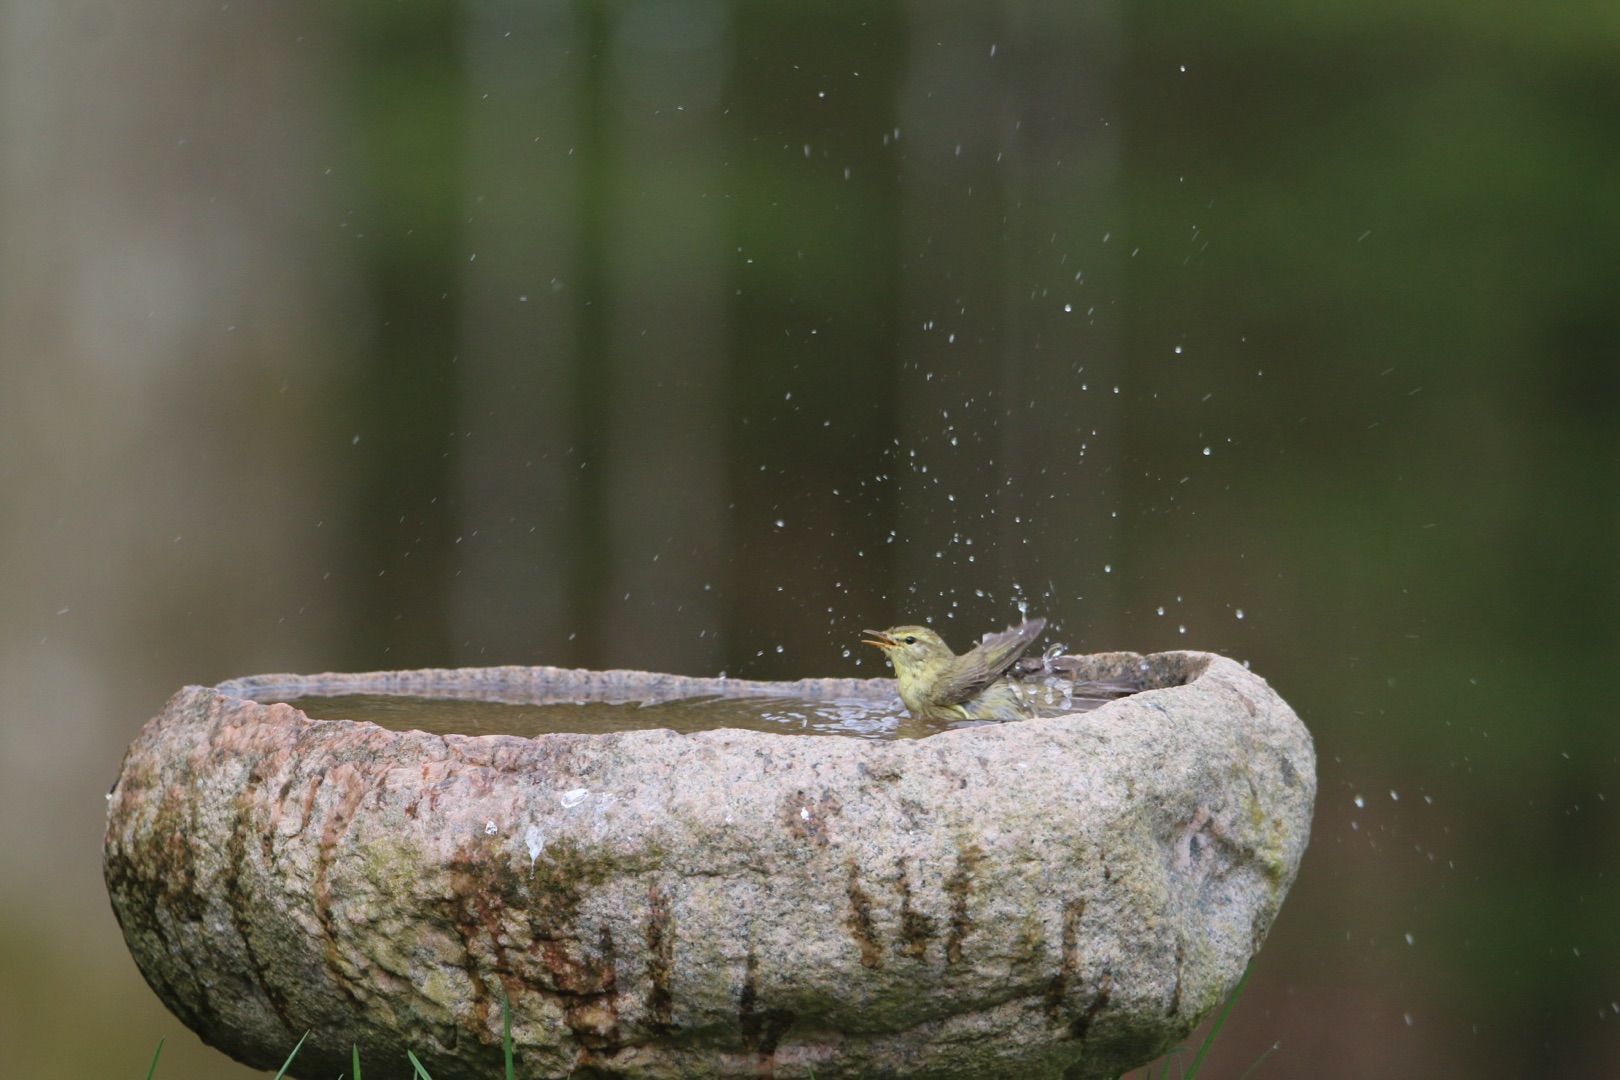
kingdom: Animalia
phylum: Chordata
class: Aves
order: Passeriformes
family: Phylloscopidae
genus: Phylloscopus
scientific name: Phylloscopus trochilus
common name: Løvsanger
